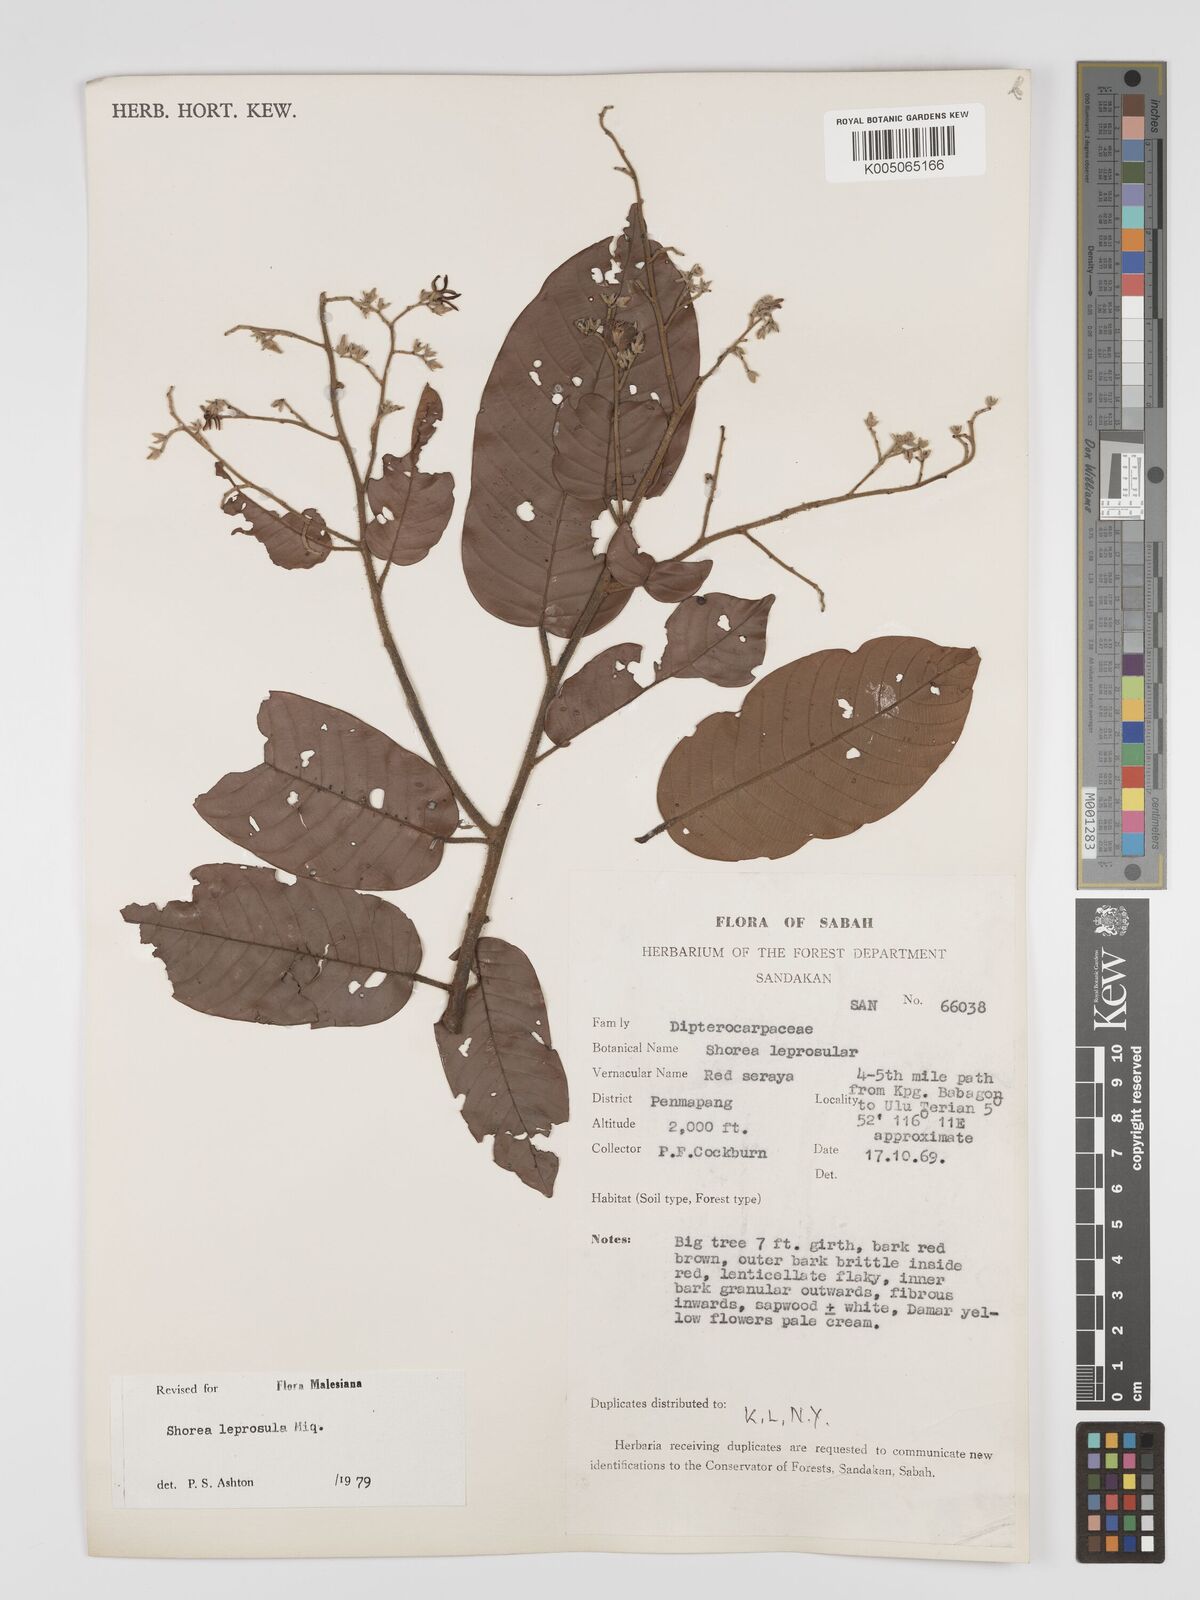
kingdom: Plantae
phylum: Tracheophyta
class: Magnoliopsida
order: Malvales
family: Dipterocarpaceae
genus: Shorea
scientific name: Shorea leprosula
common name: Light red meranti
